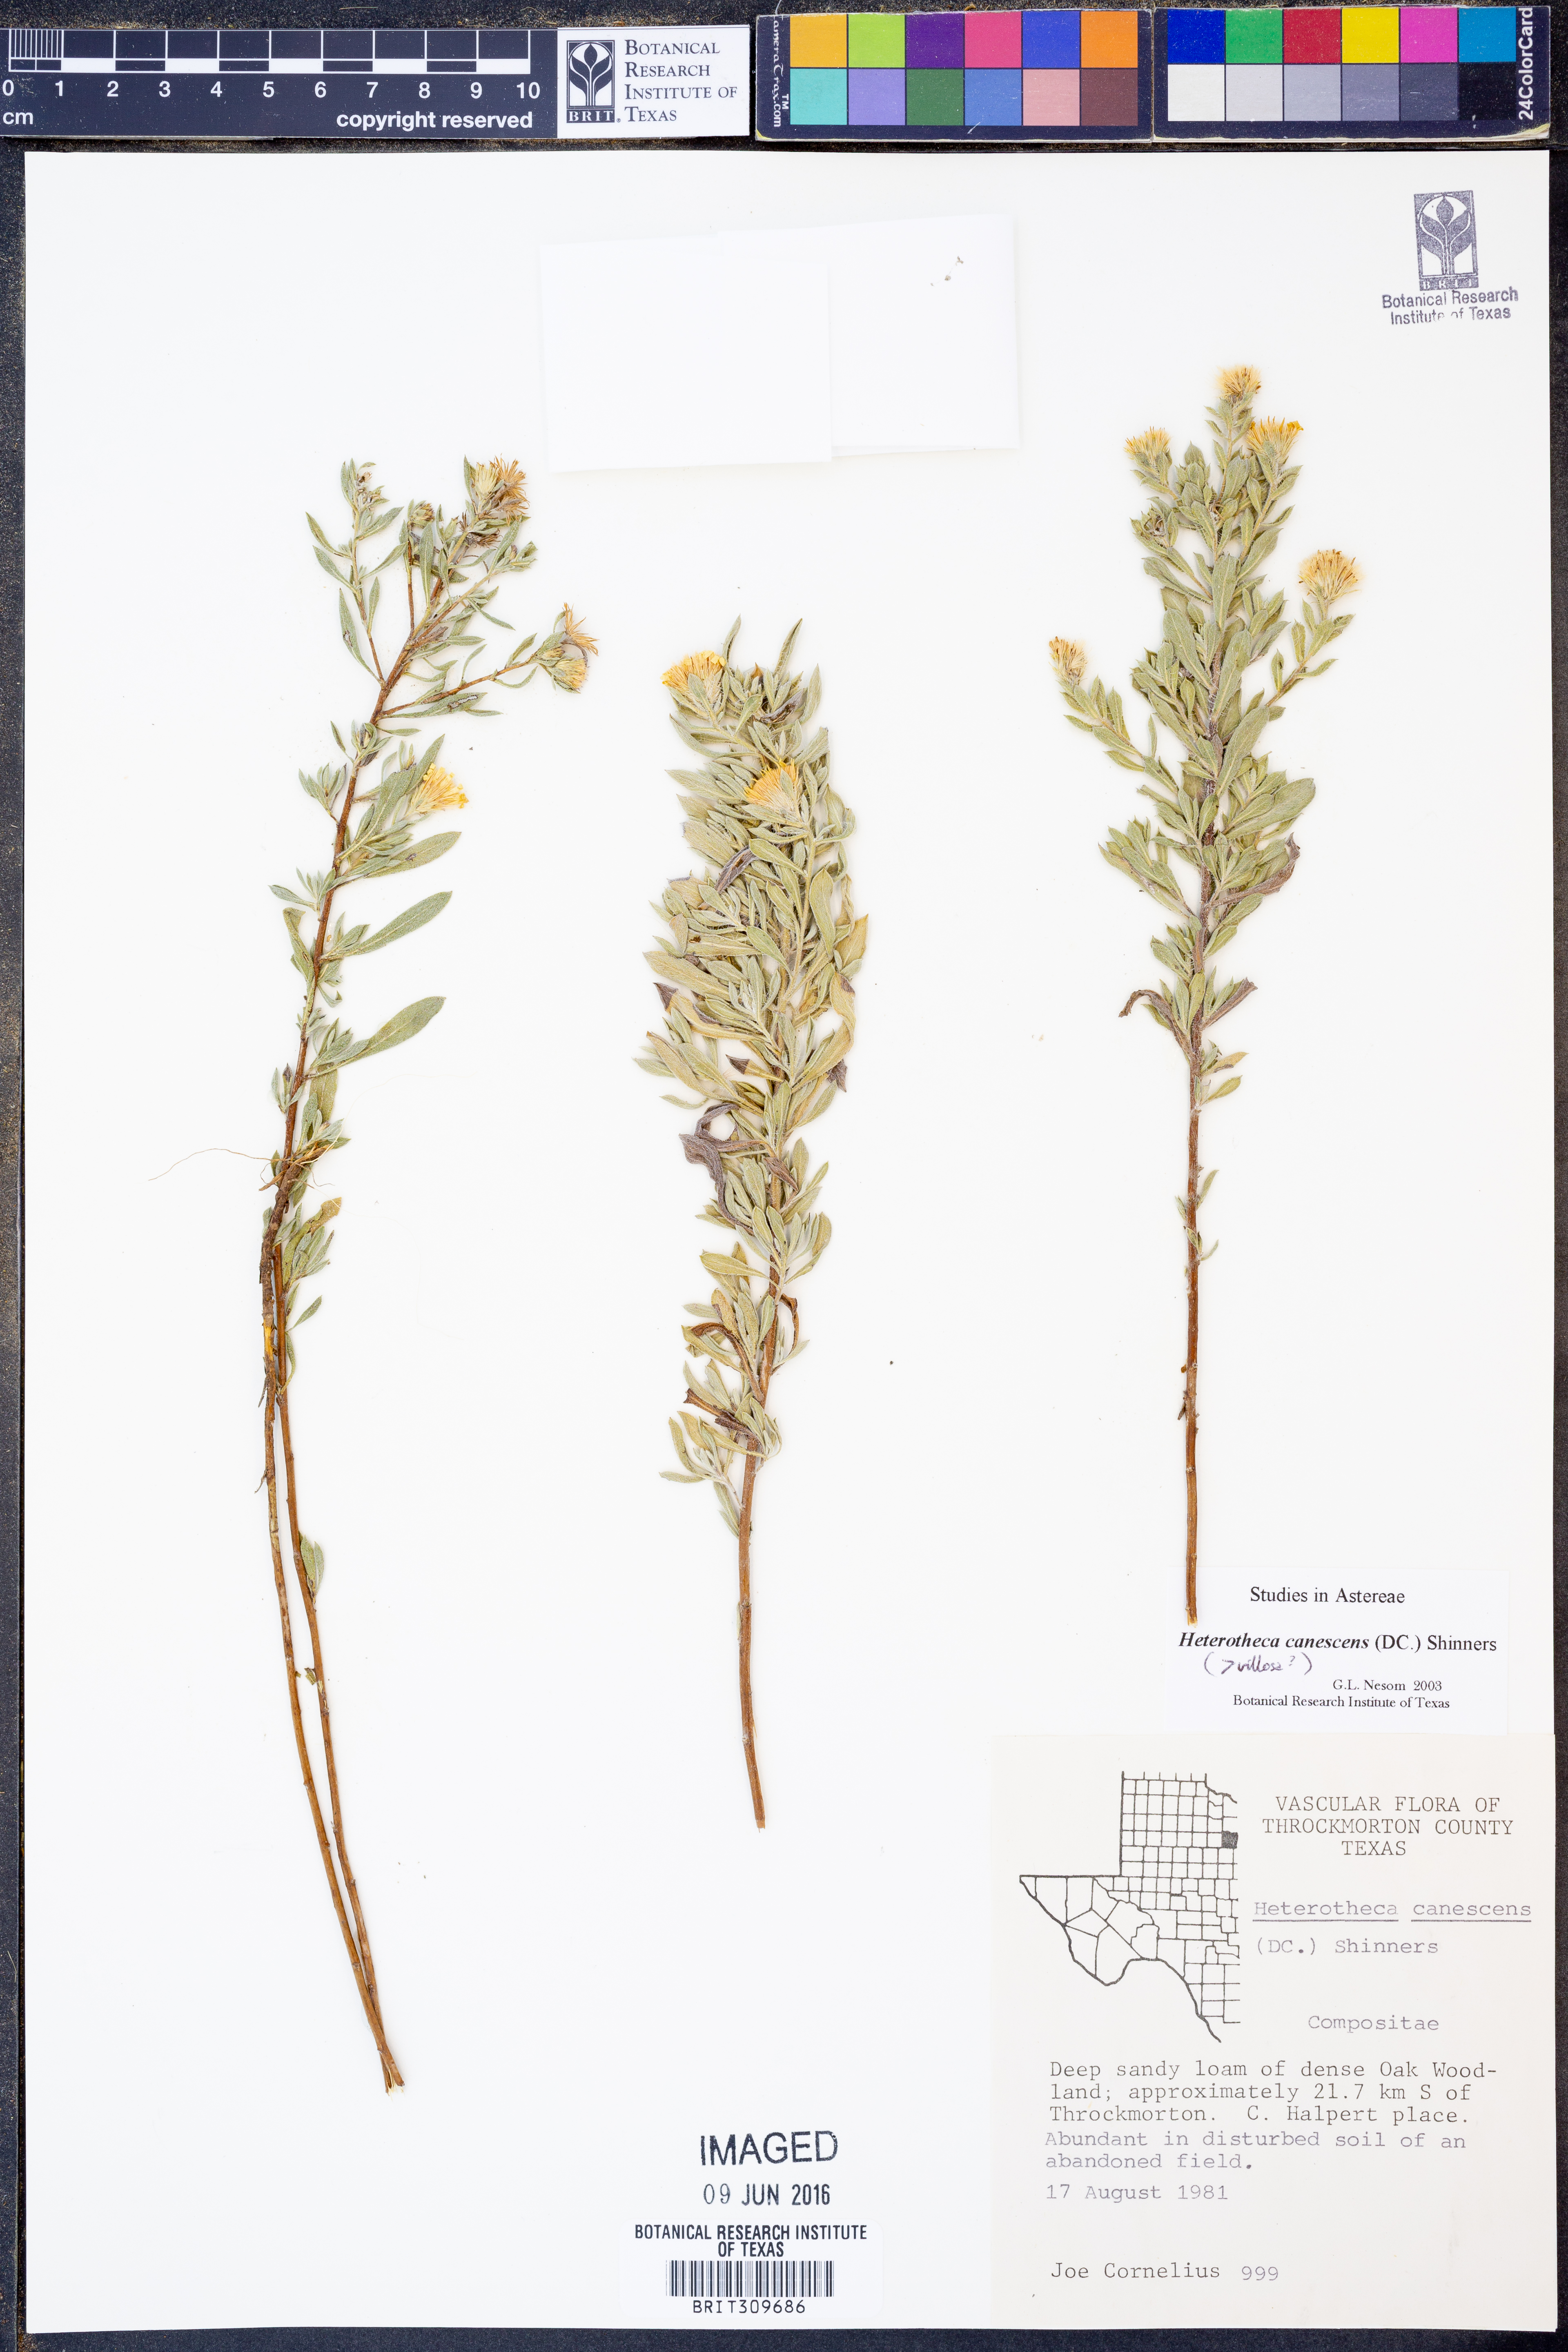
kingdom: Plantae
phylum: Tracheophyta
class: Magnoliopsida
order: Asterales
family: Asteraceae
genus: Heterotheca
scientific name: Heterotheca canescens
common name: Hoary golden-aster
